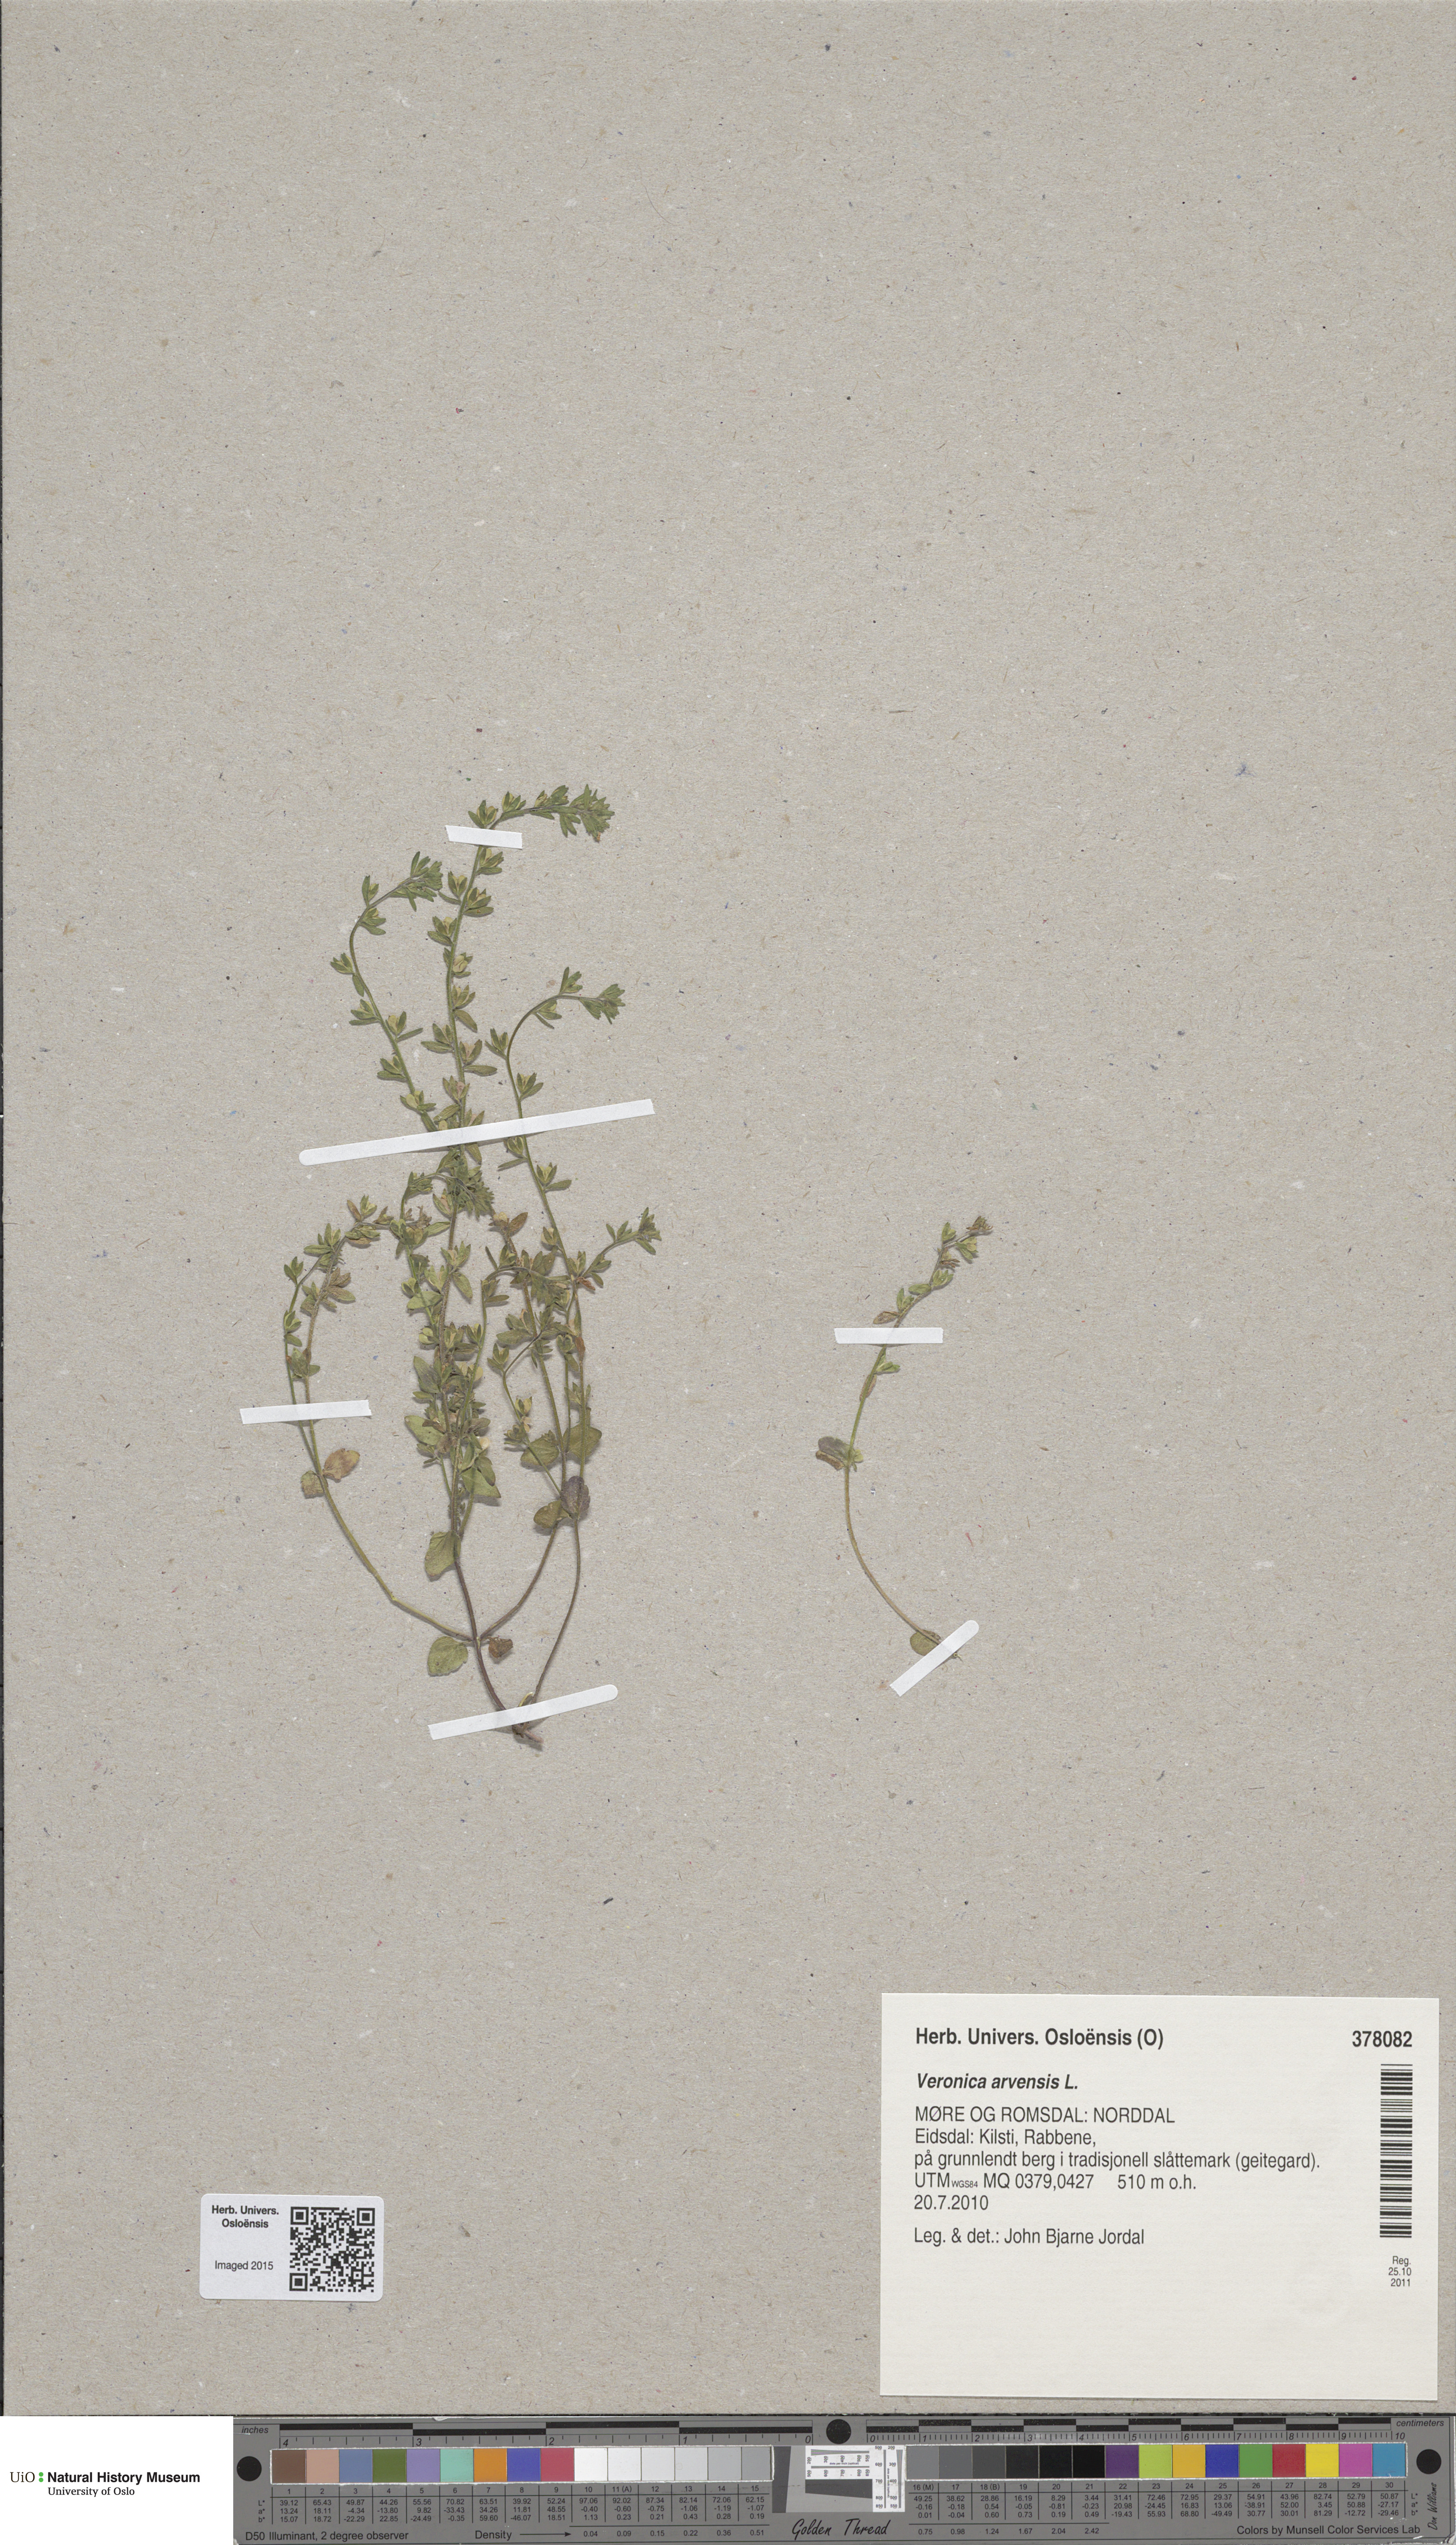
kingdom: Plantae
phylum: Tracheophyta
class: Magnoliopsida
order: Lamiales
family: Plantaginaceae
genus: Veronica
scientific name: Veronica arvensis
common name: Corn speedwell
